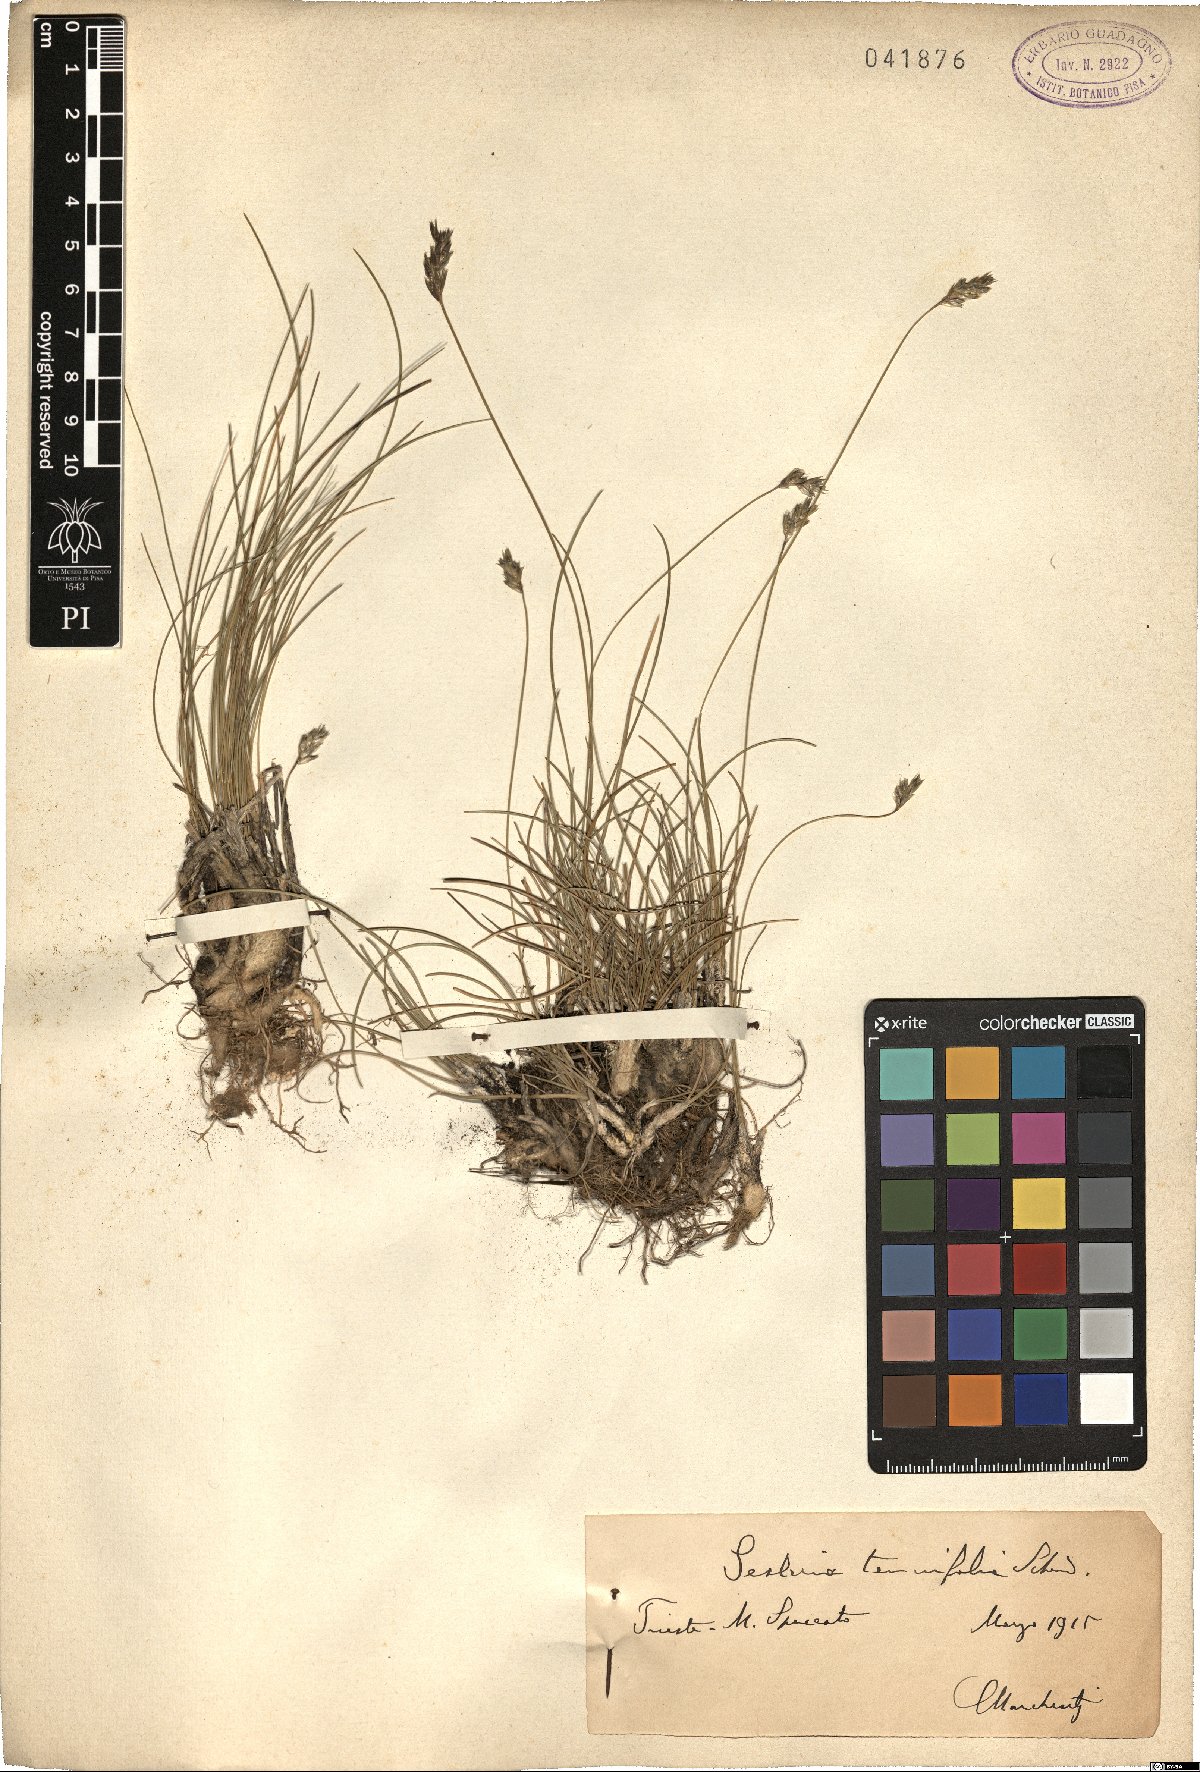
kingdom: Plantae
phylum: Tracheophyta
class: Liliopsida
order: Poales
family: Poaceae
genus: Sesleria
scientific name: Sesleria juncifolia
